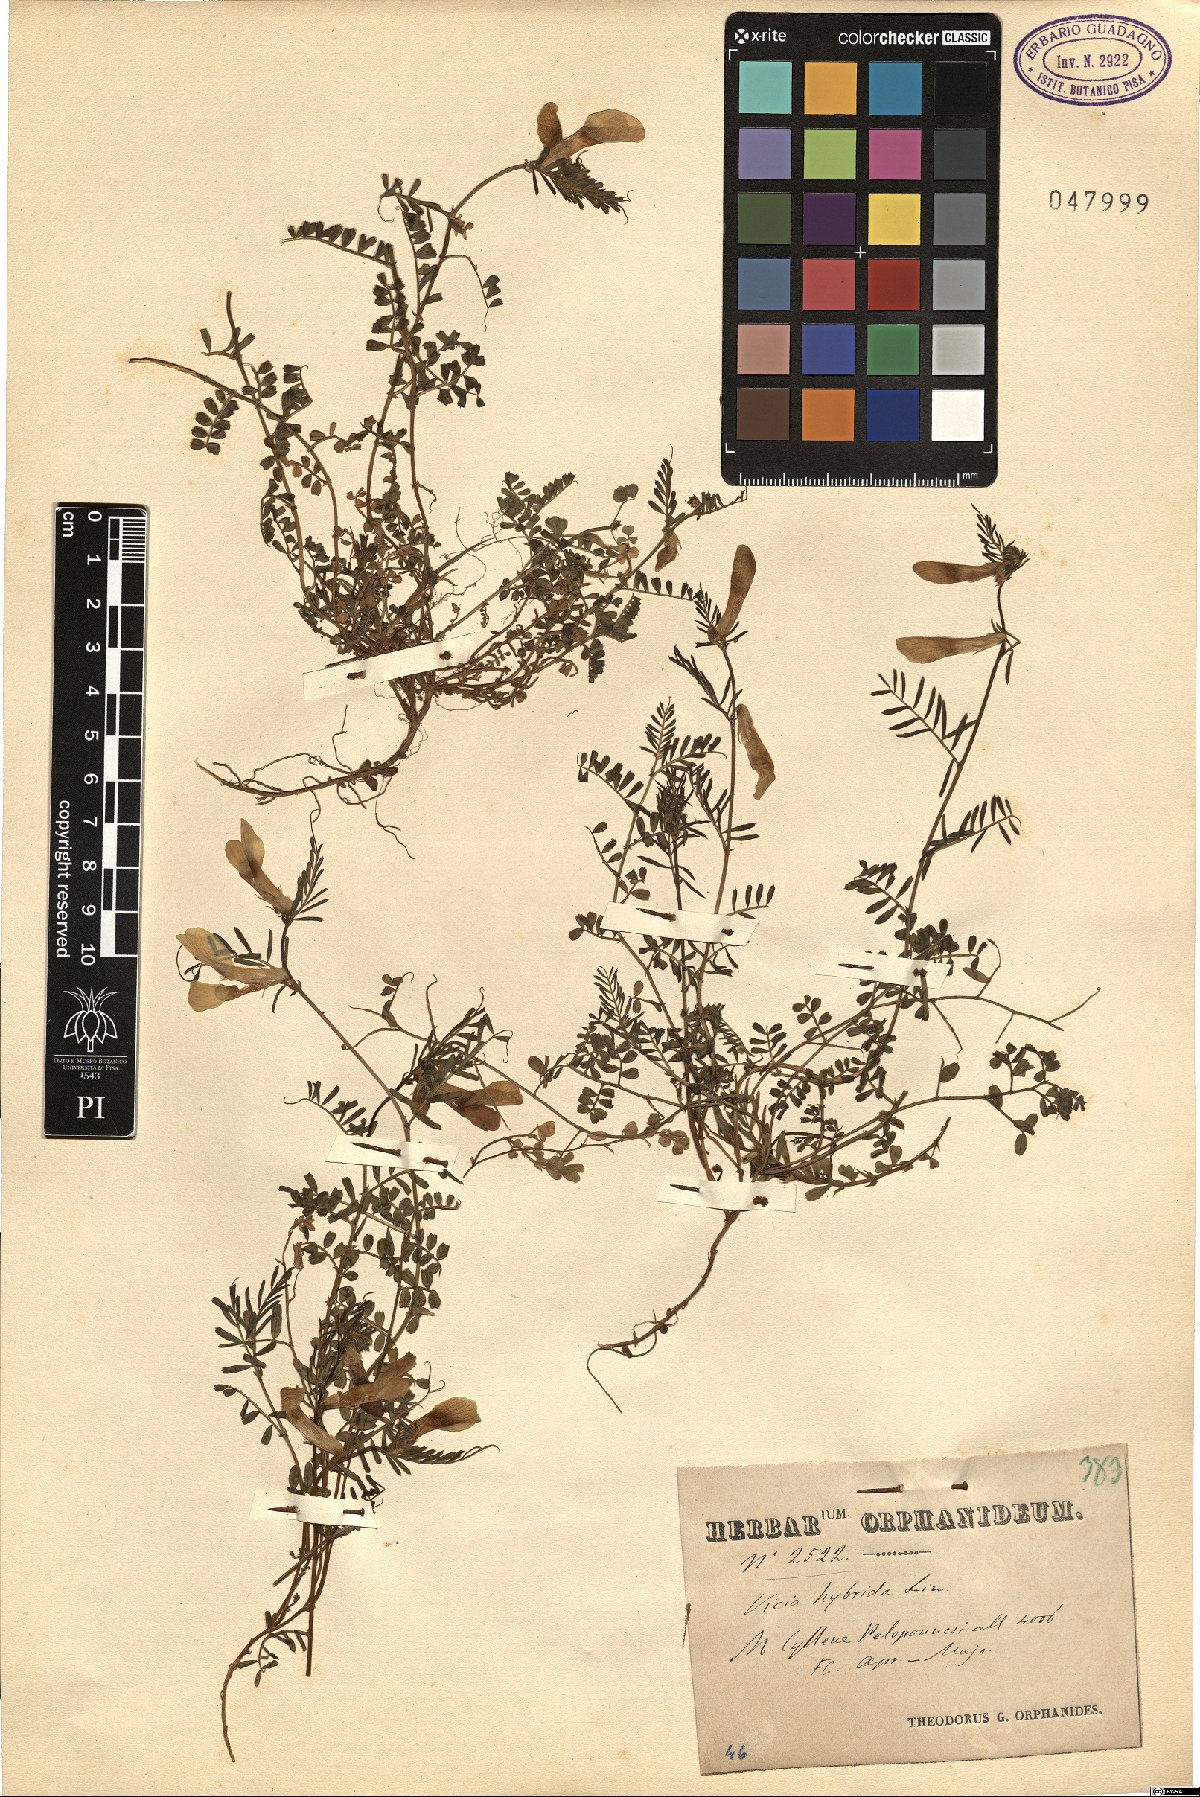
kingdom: Plantae
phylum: Tracheophyta
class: Magnoliopsida
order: Fabales
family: Fabaceae
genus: Vicia
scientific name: Vicia hybrida
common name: Hairy yellow vetch
